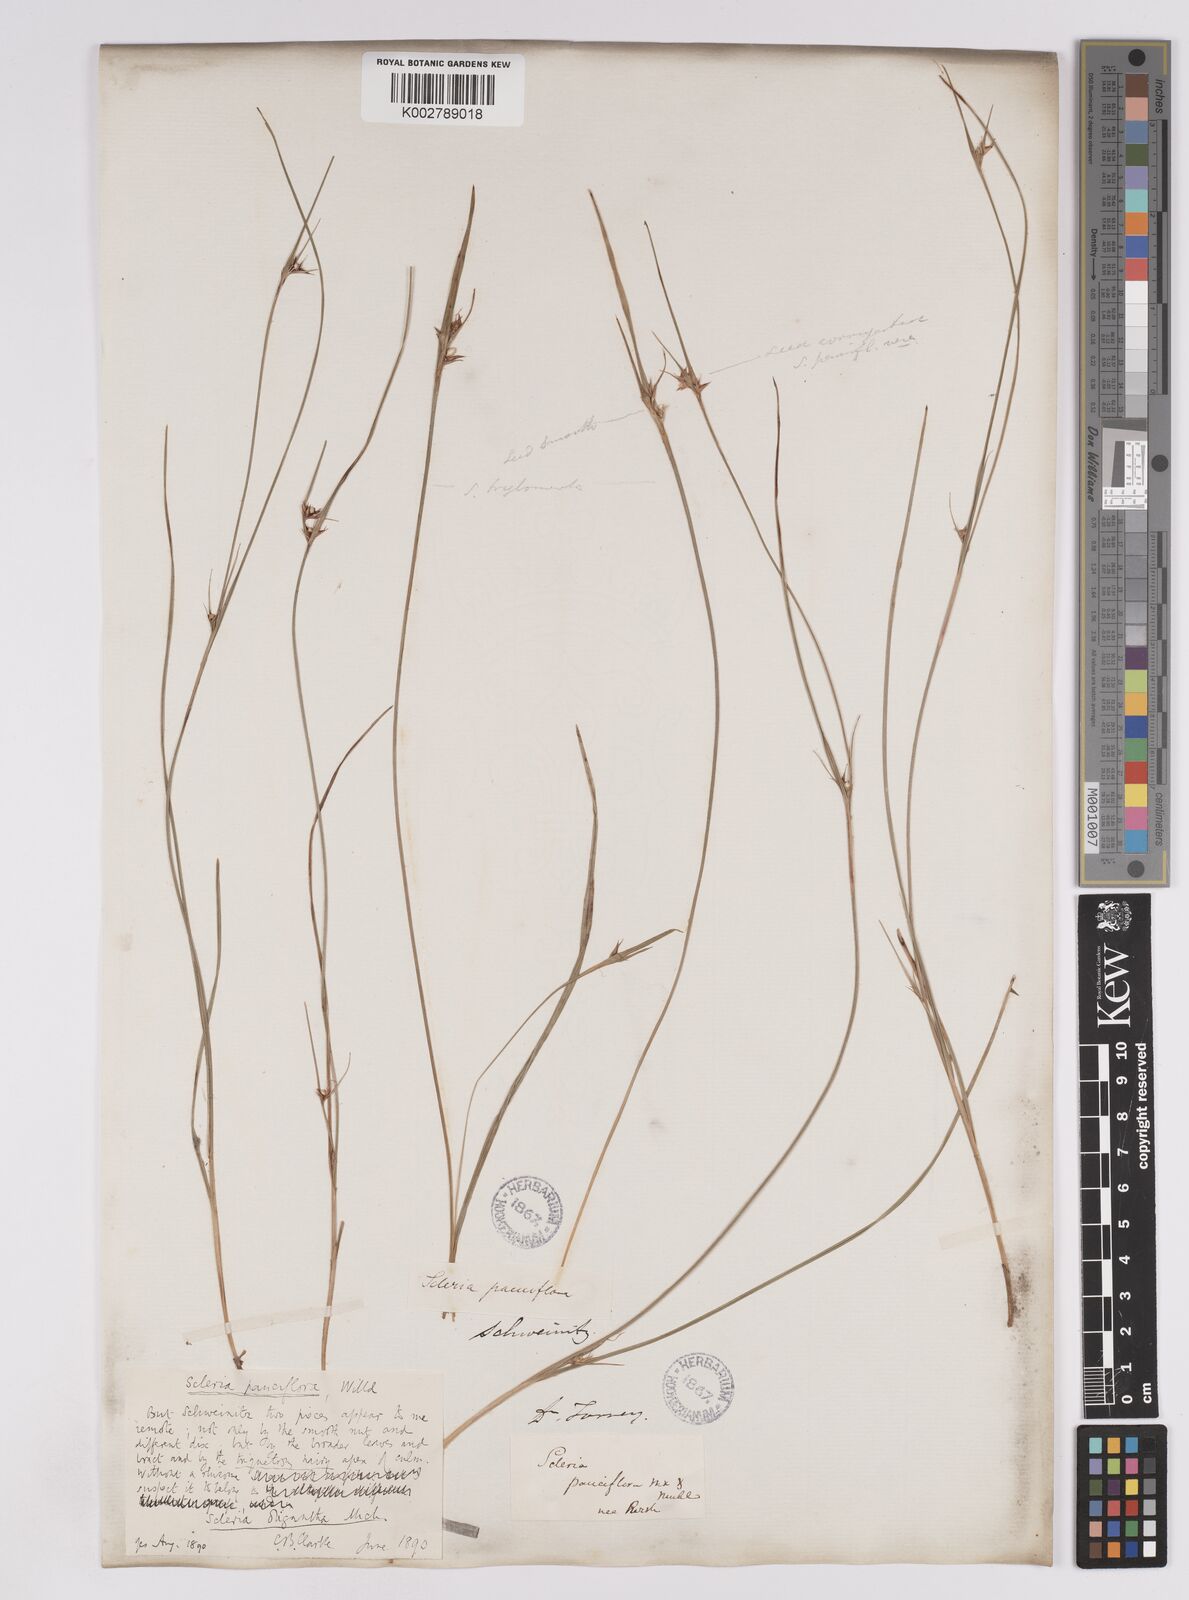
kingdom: Plantae
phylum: Tracheophyta
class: Liliopsida
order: Poales
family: Cyperaceae
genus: Scleria
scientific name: Scleria oligantha
